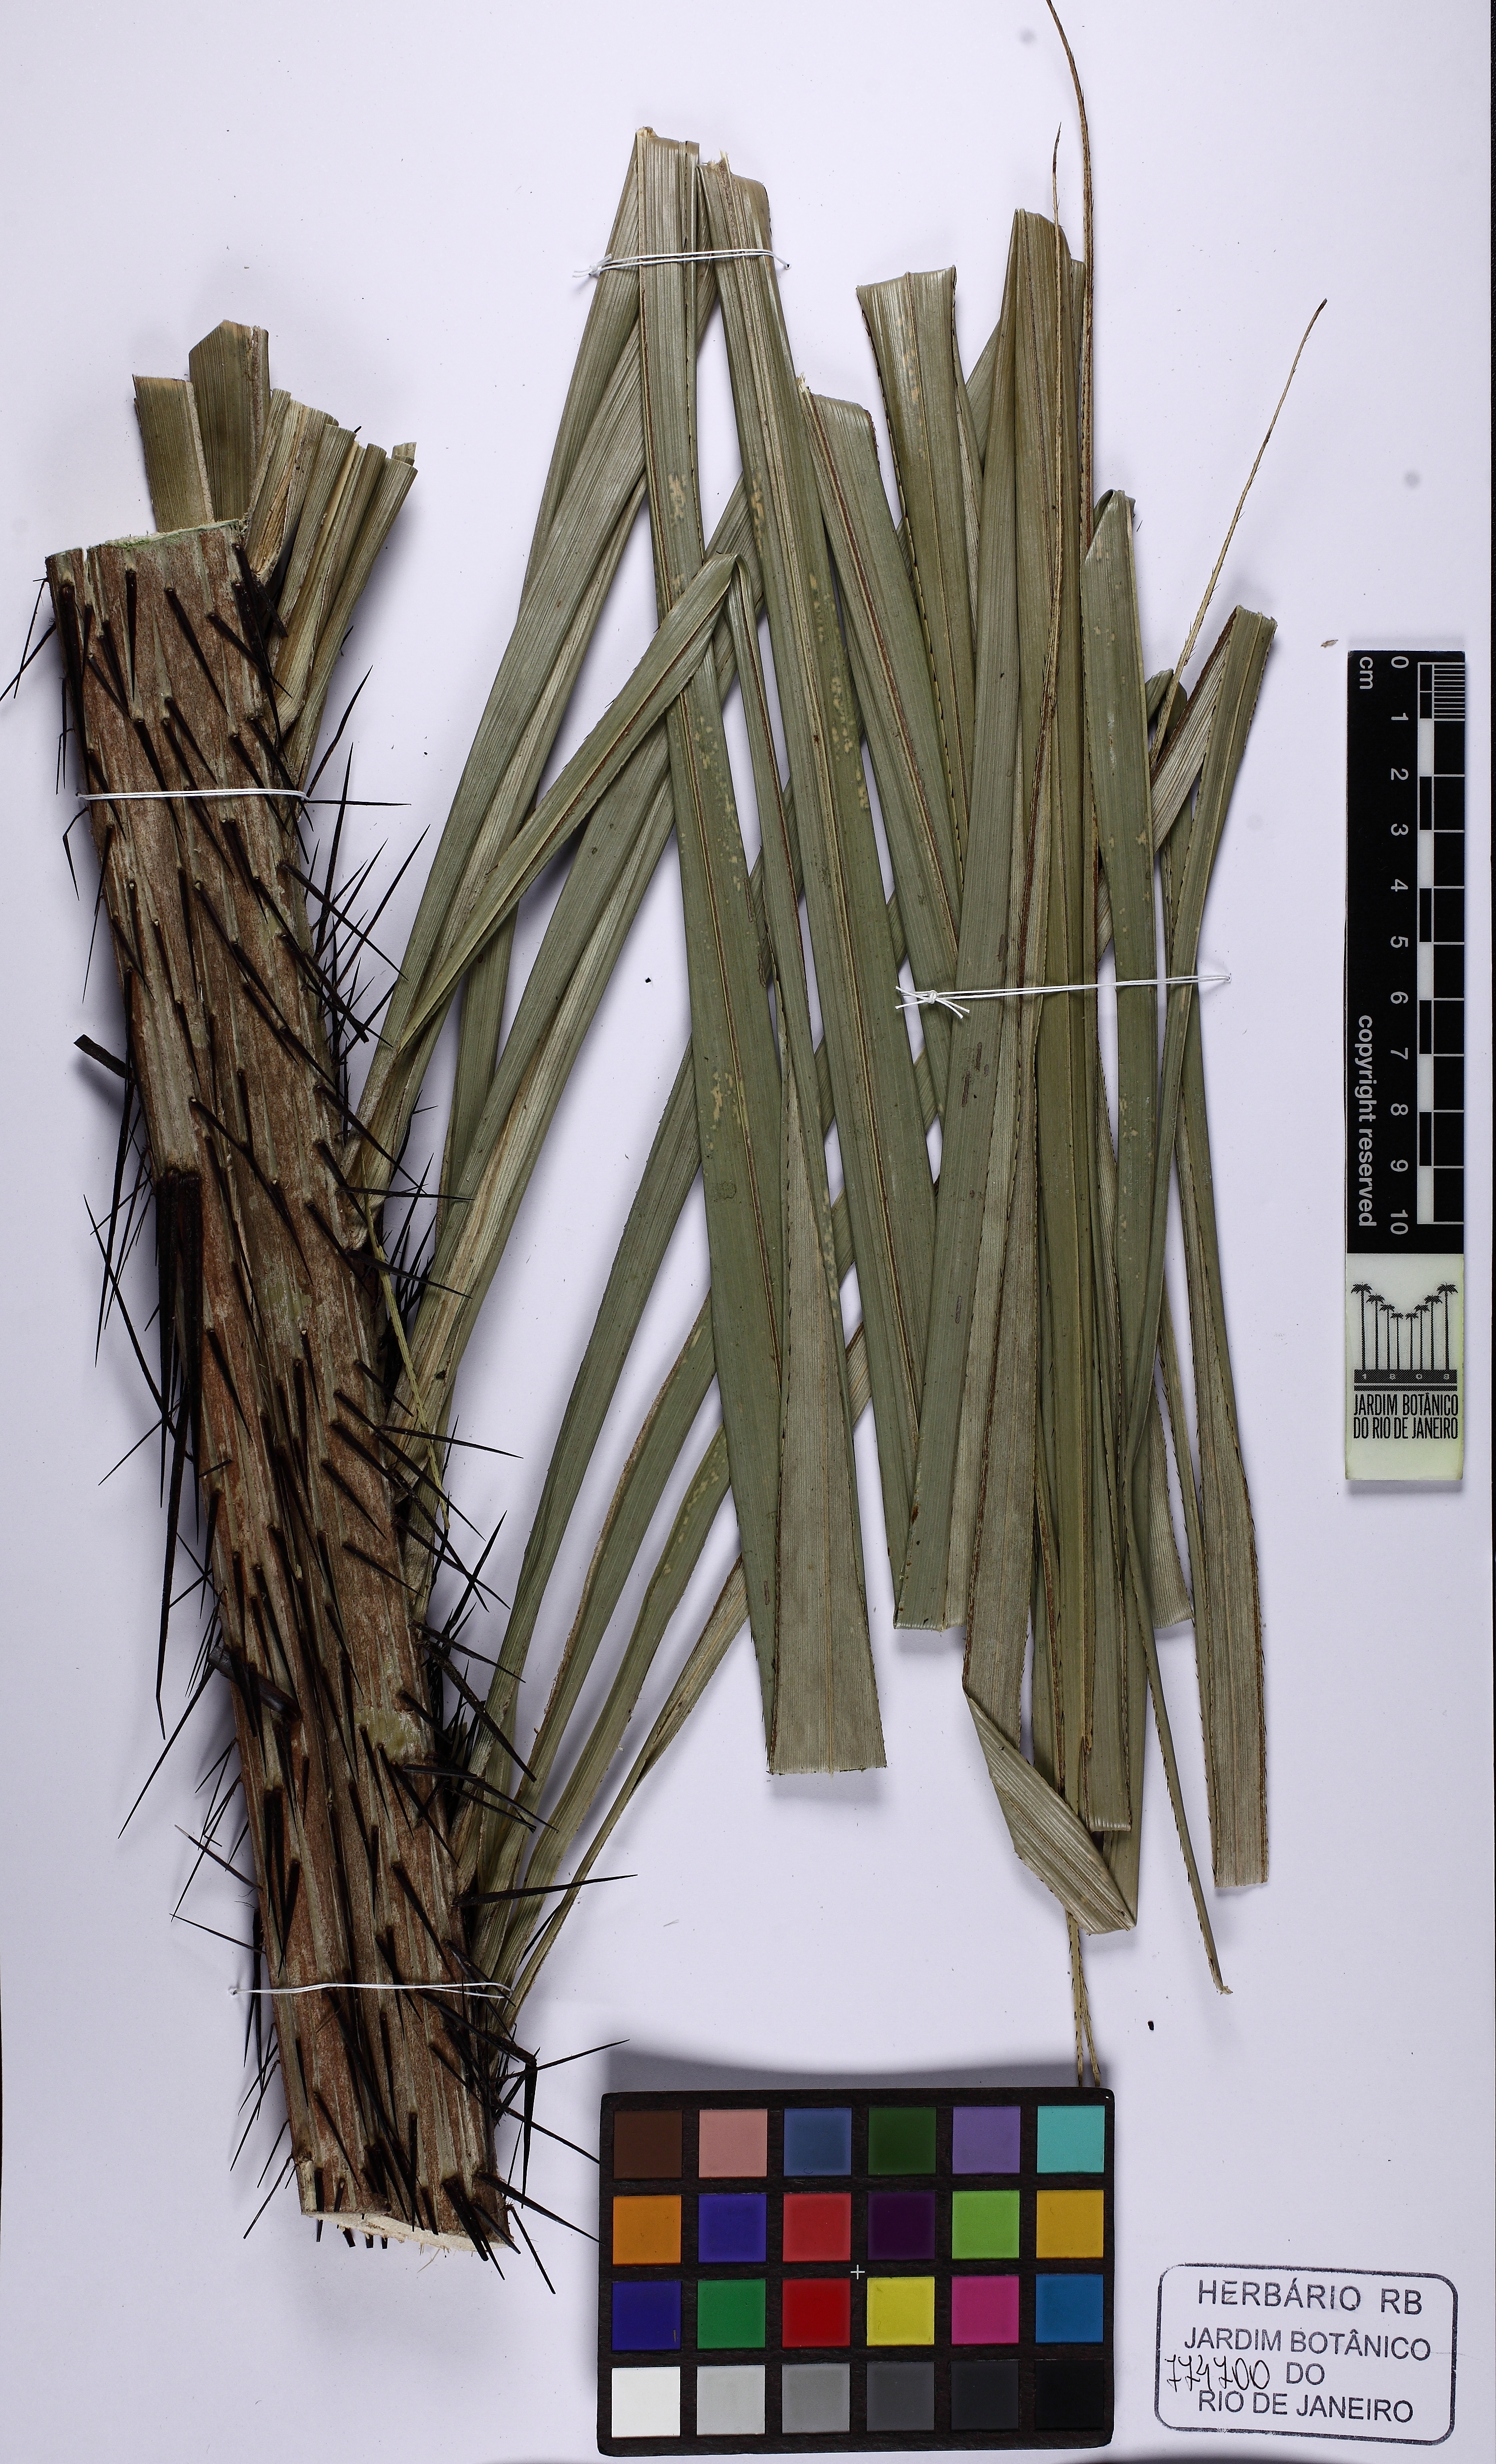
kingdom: Plantae
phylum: Tracheophyta
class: Liliopsida
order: Arecales
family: Arecaceae
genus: Astrocaryum
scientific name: Astrocaryum aculeatum
